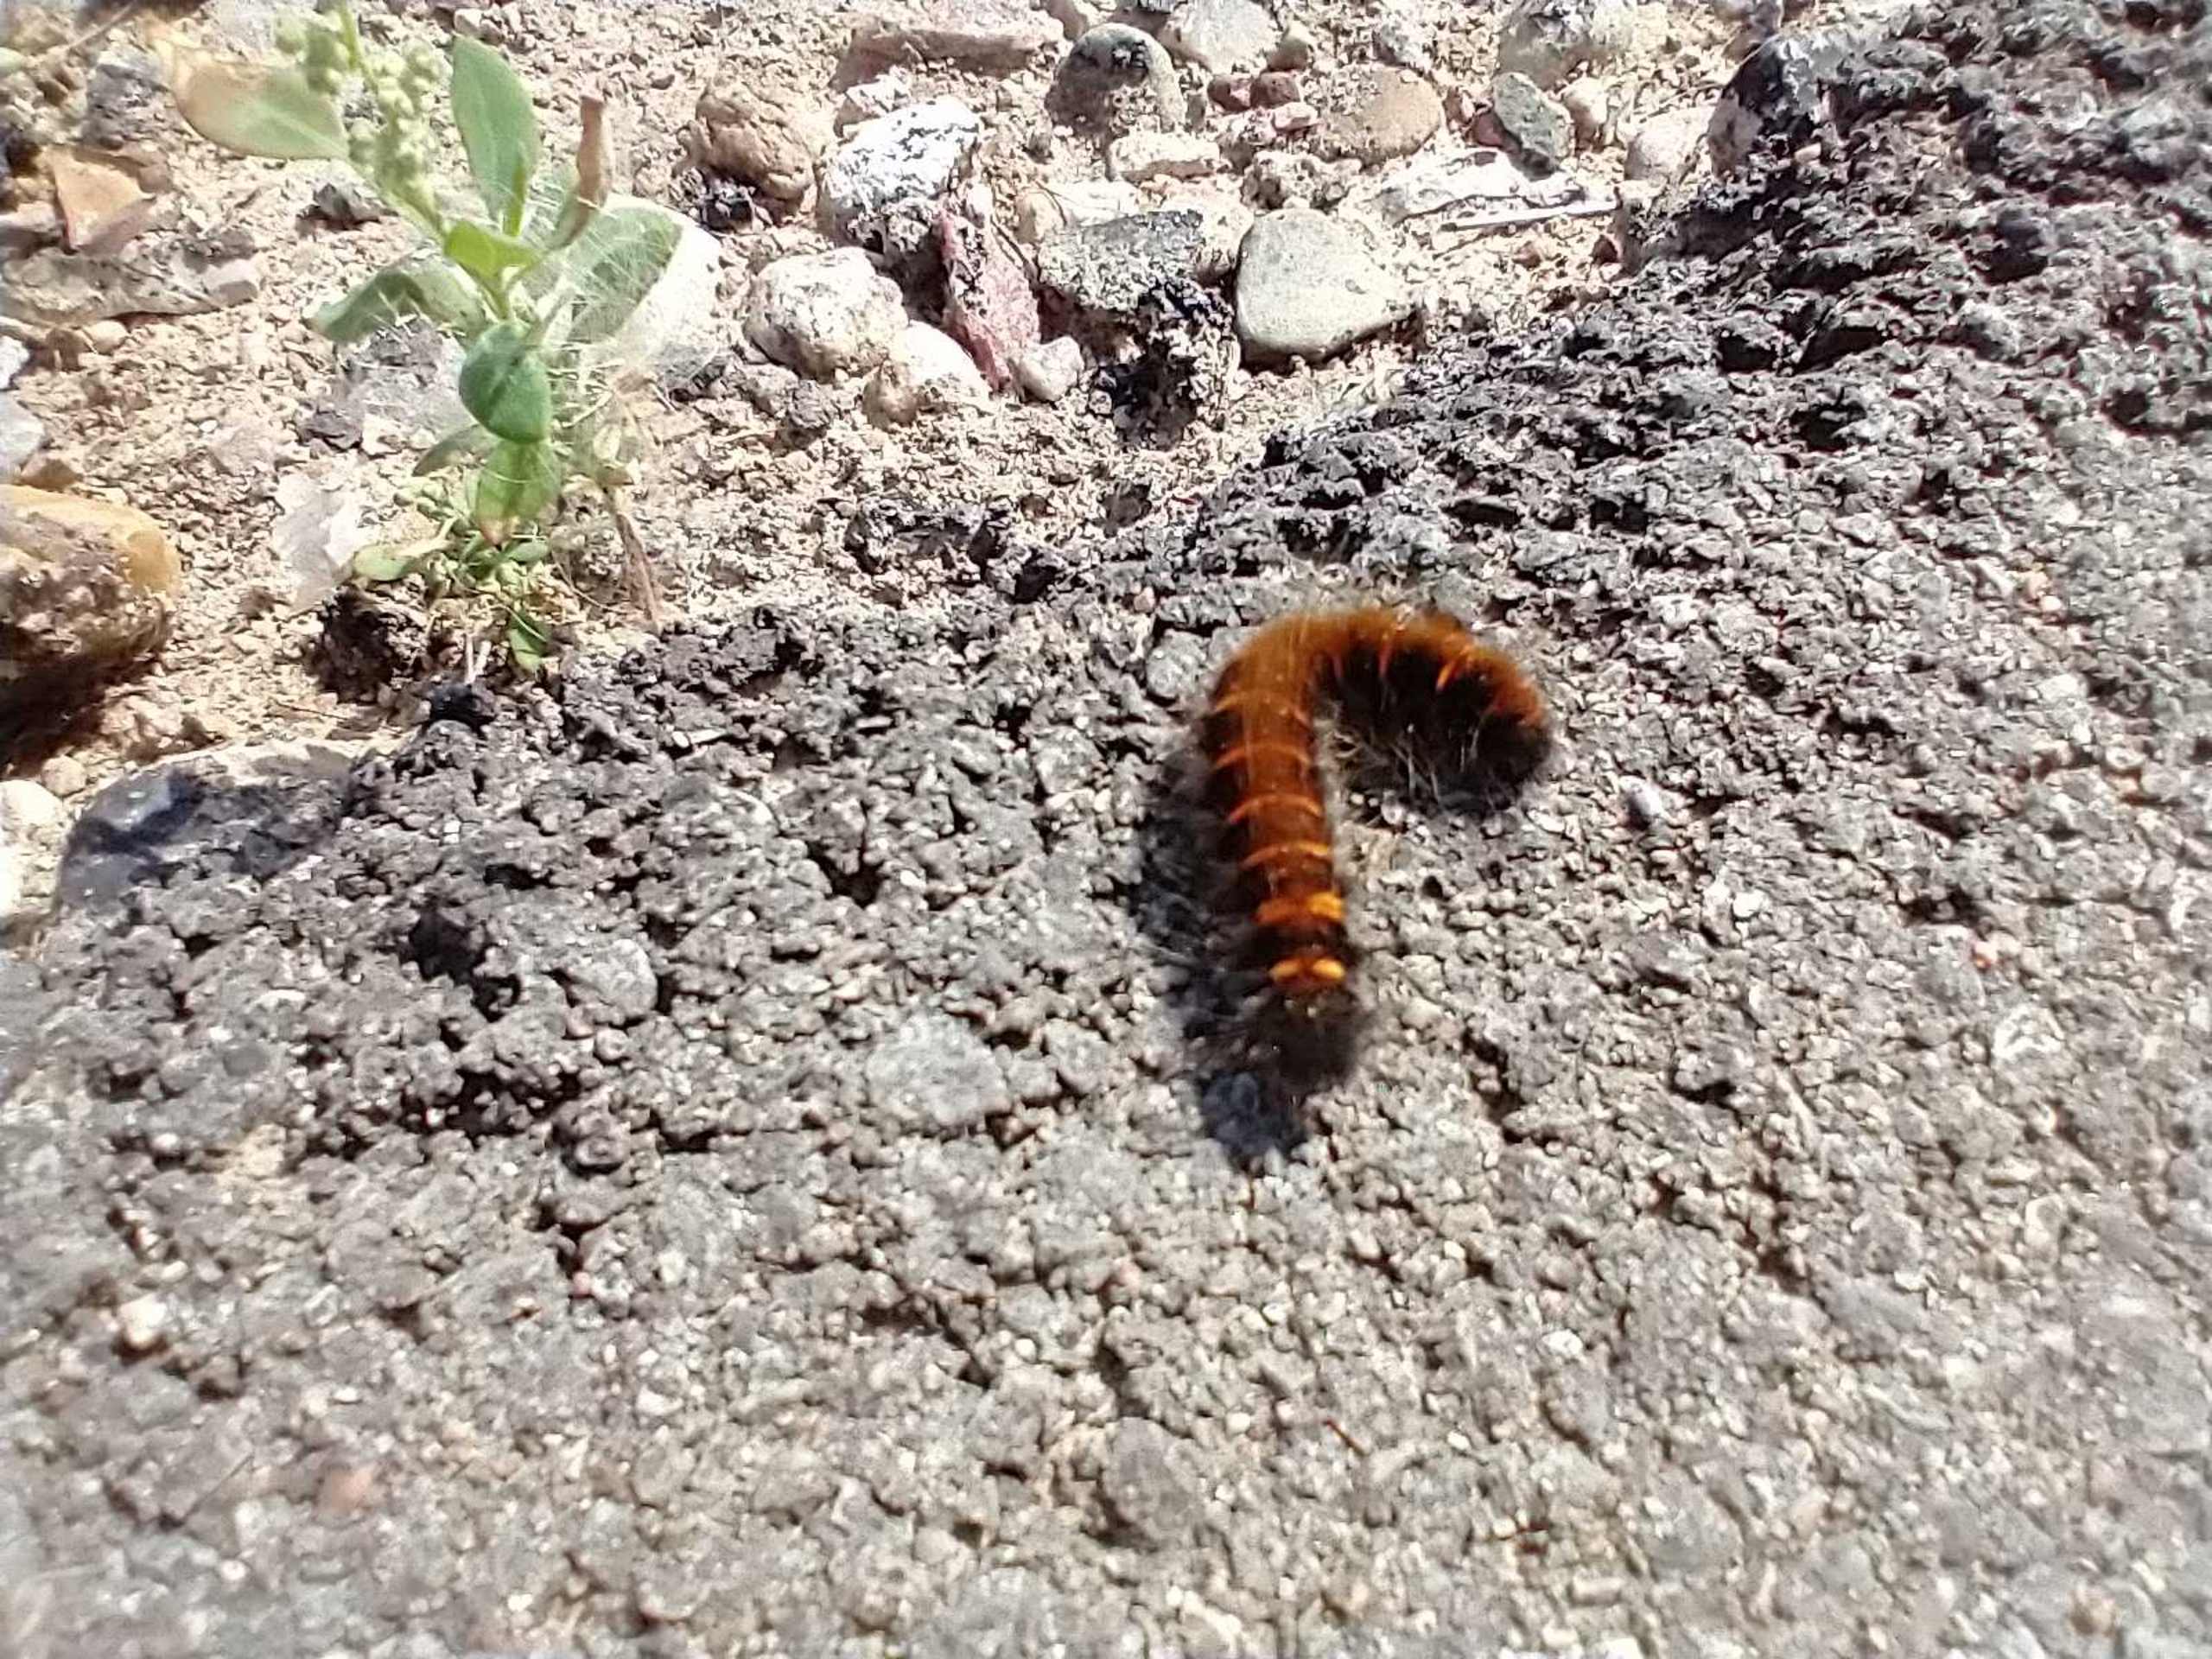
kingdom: Animalia
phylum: Arthropoda
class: Insecta
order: Lepidoptera
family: Lasiocampidae
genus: Macrothylacia
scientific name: Macrothylacia rubi
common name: Brombærspinder
